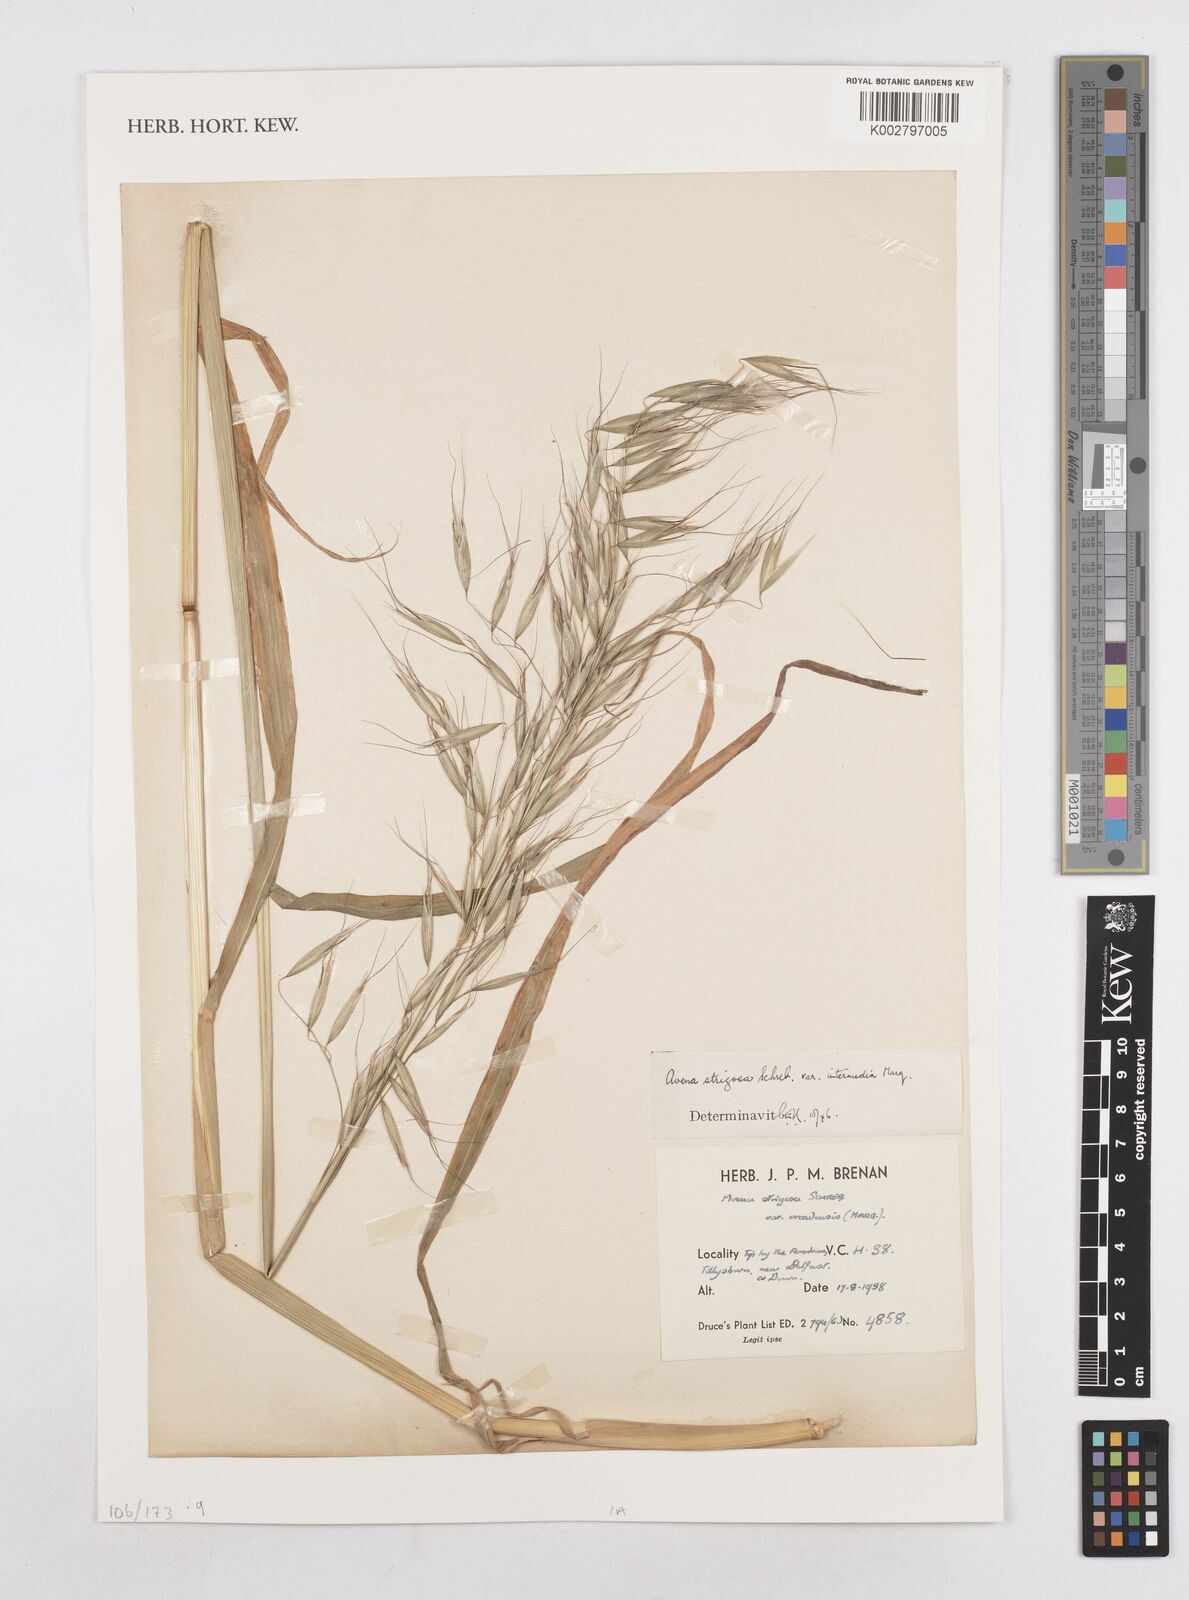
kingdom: Plantae
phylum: Tracheophyta
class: Liliopsida
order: Poales
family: Poaceae
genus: Avena
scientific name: Avena strigosa
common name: Bristle oat
